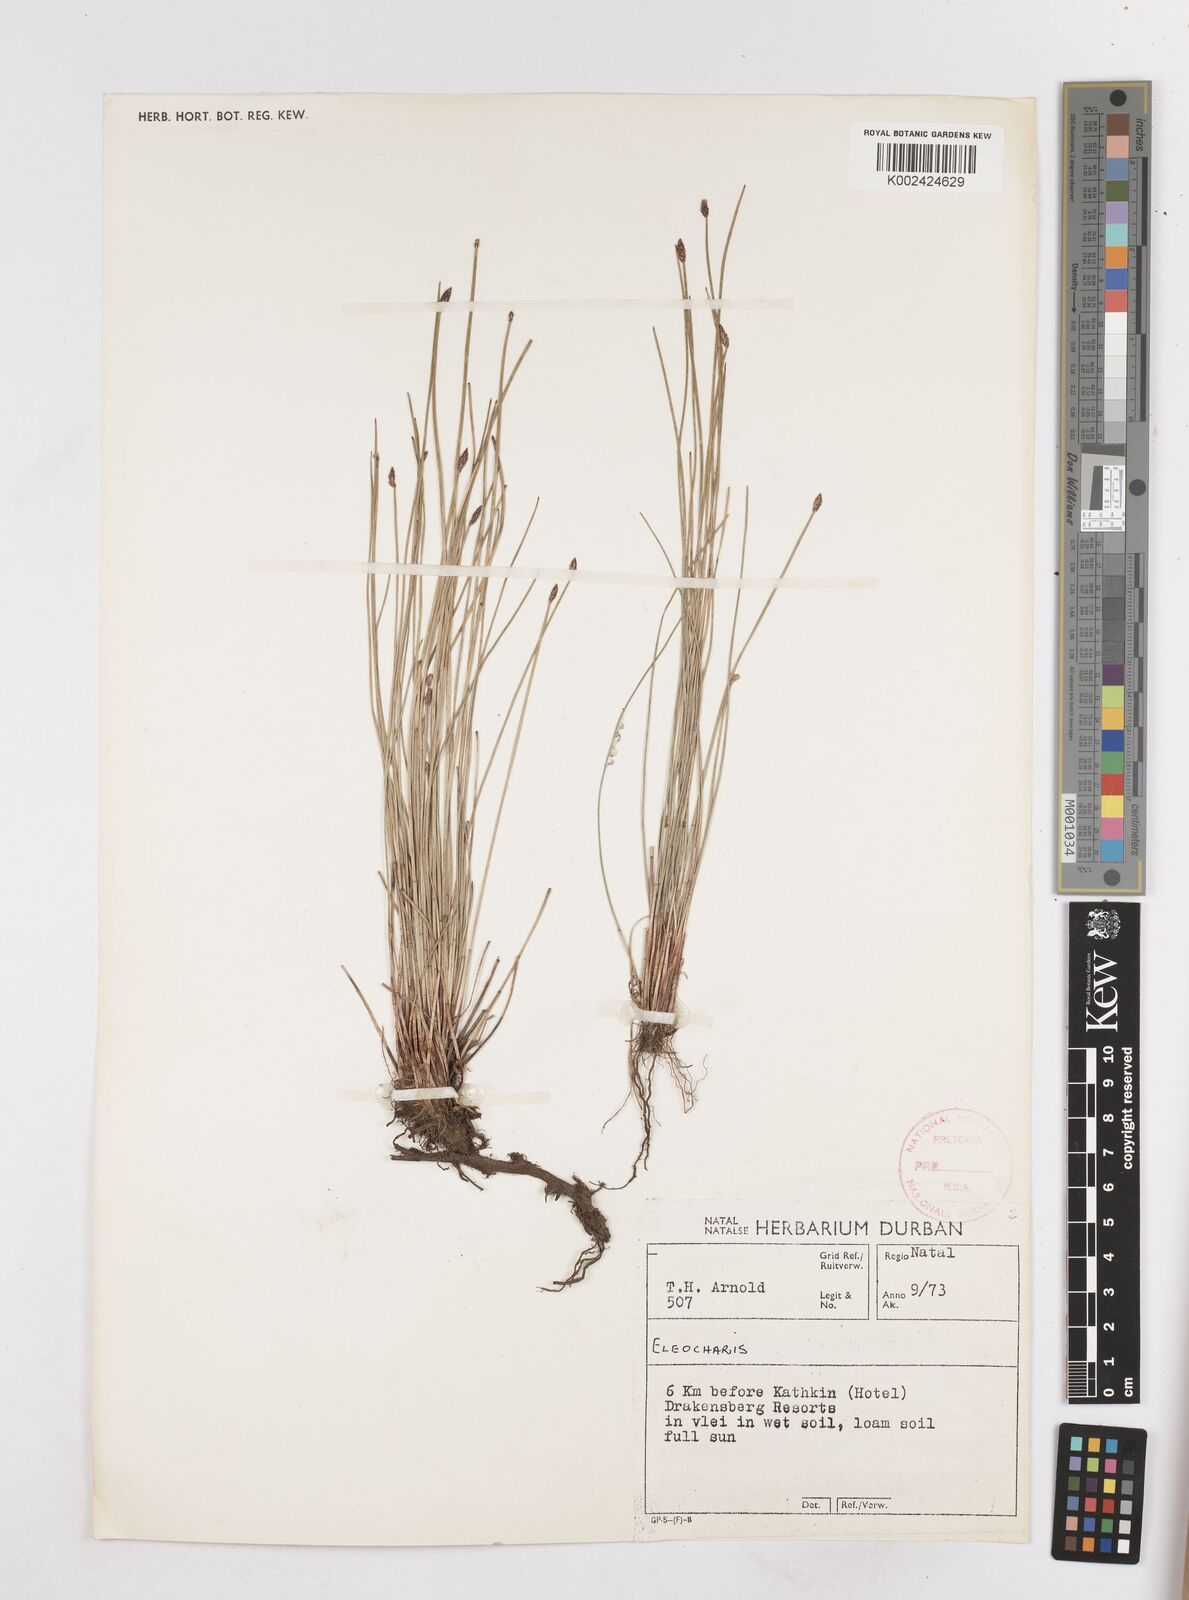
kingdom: Plantae
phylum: Tracheophyta
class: Liliopsida
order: Poales
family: Cyperaceae
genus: Eleocharis
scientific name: Eleocharis
